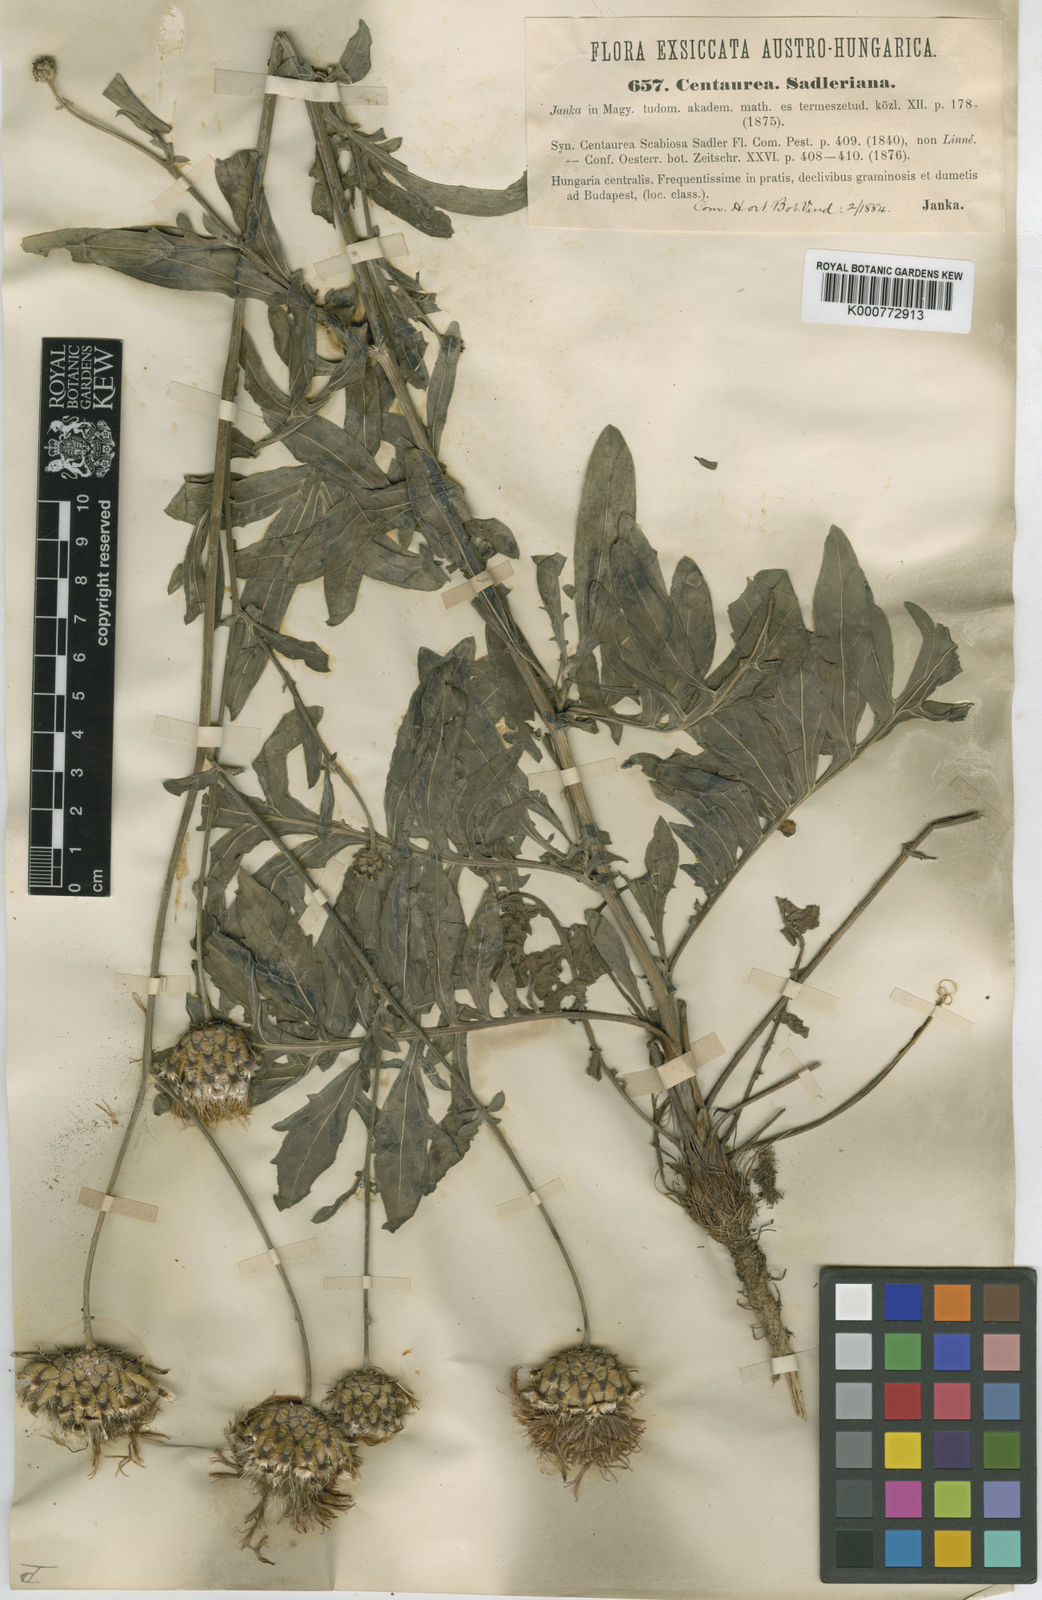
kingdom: Plantae
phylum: Tracheophyta
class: Magnoliopsida
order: Asterales
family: Asteraceae
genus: Centaurea
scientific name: Centaurea sadleriana
